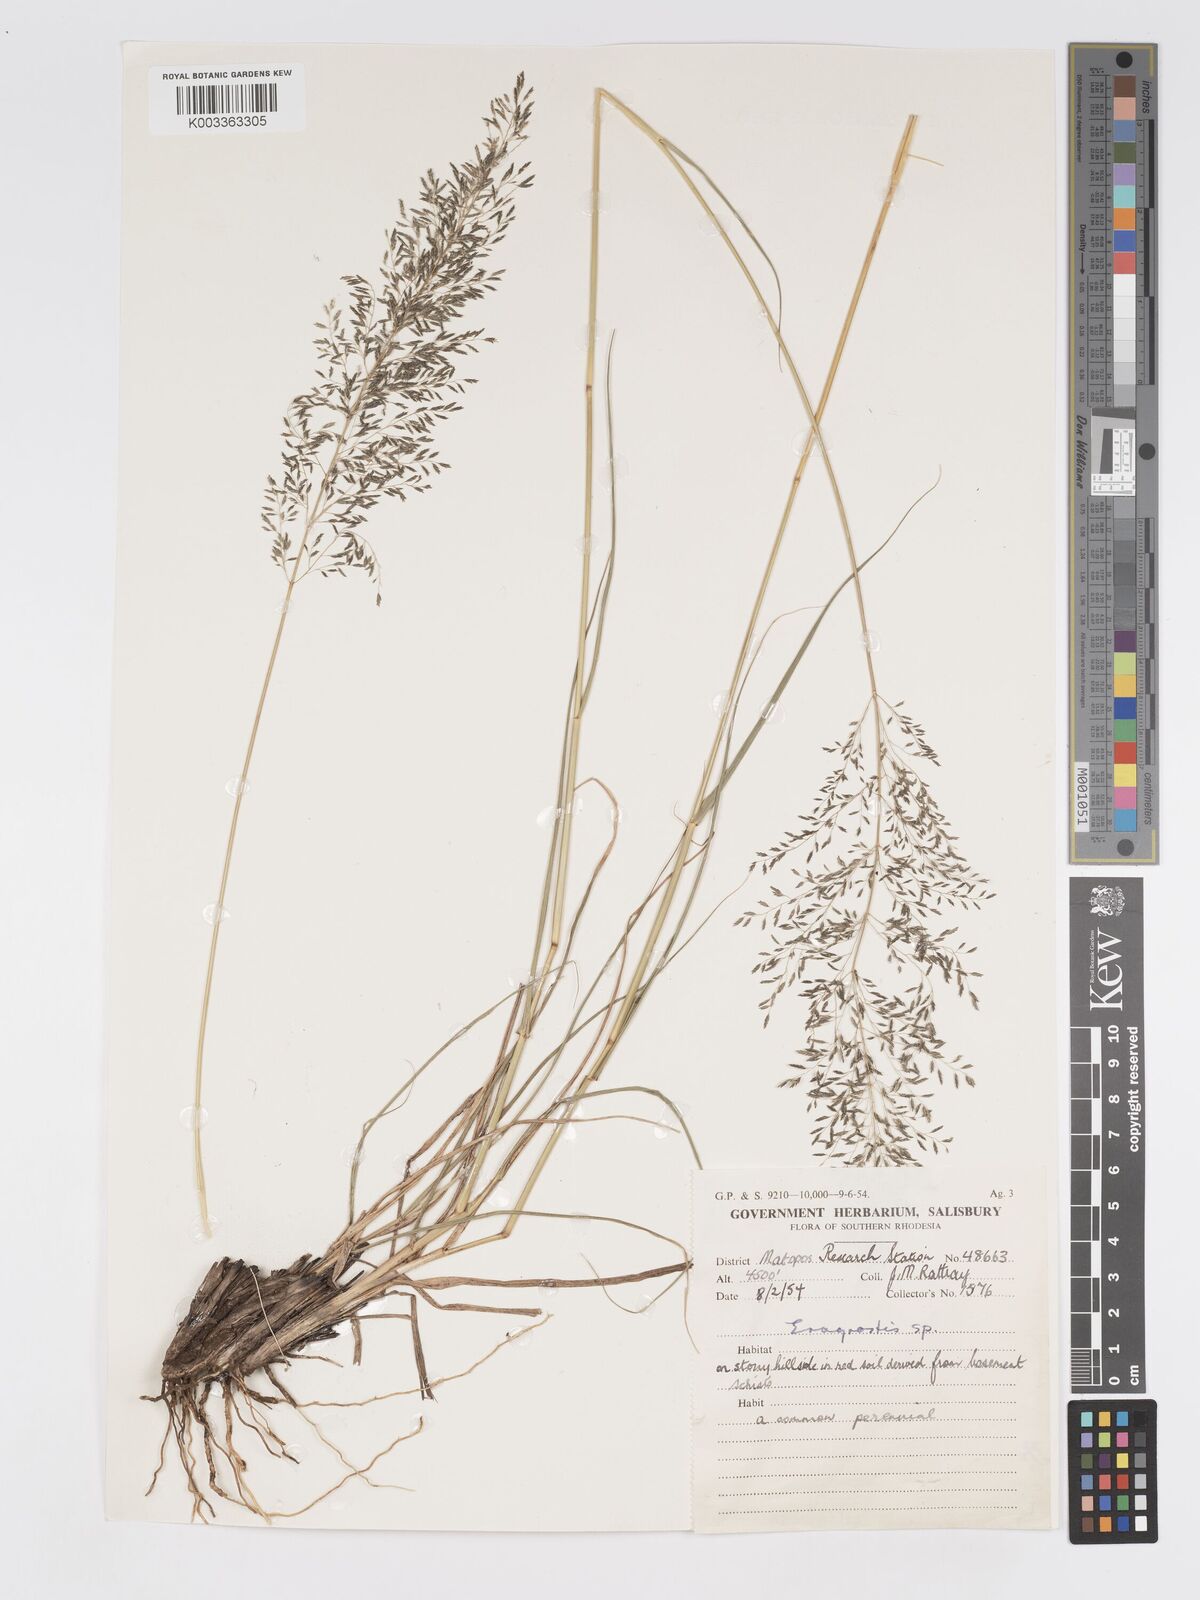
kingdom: Plantae
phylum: Tracheophyta
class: Liliopsida
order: Poales
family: Poaceae
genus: Eragrostis
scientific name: Eragrostis curvula
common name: African love-grass
